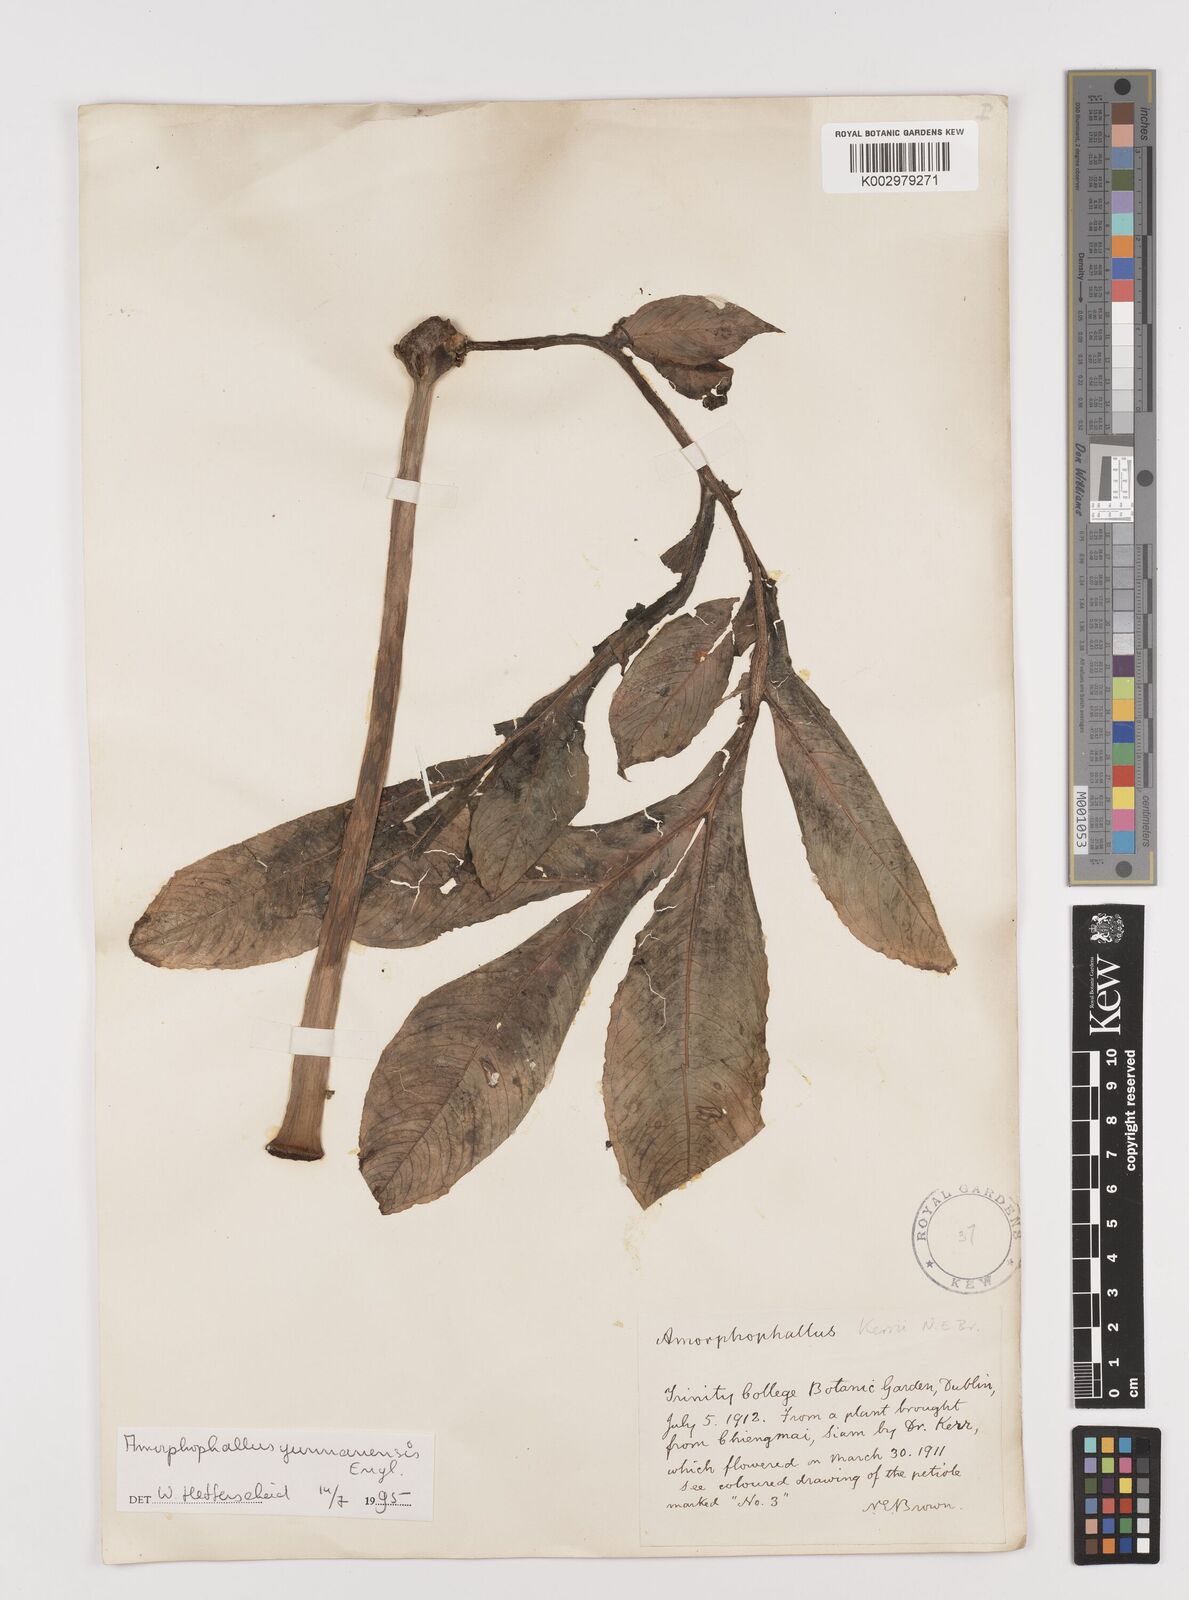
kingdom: Plantae
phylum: Tracheophyta
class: Liliopsida
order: Alismatales
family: Araceae
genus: Amorphophallus
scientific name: Amorphophallus yunnanensis
